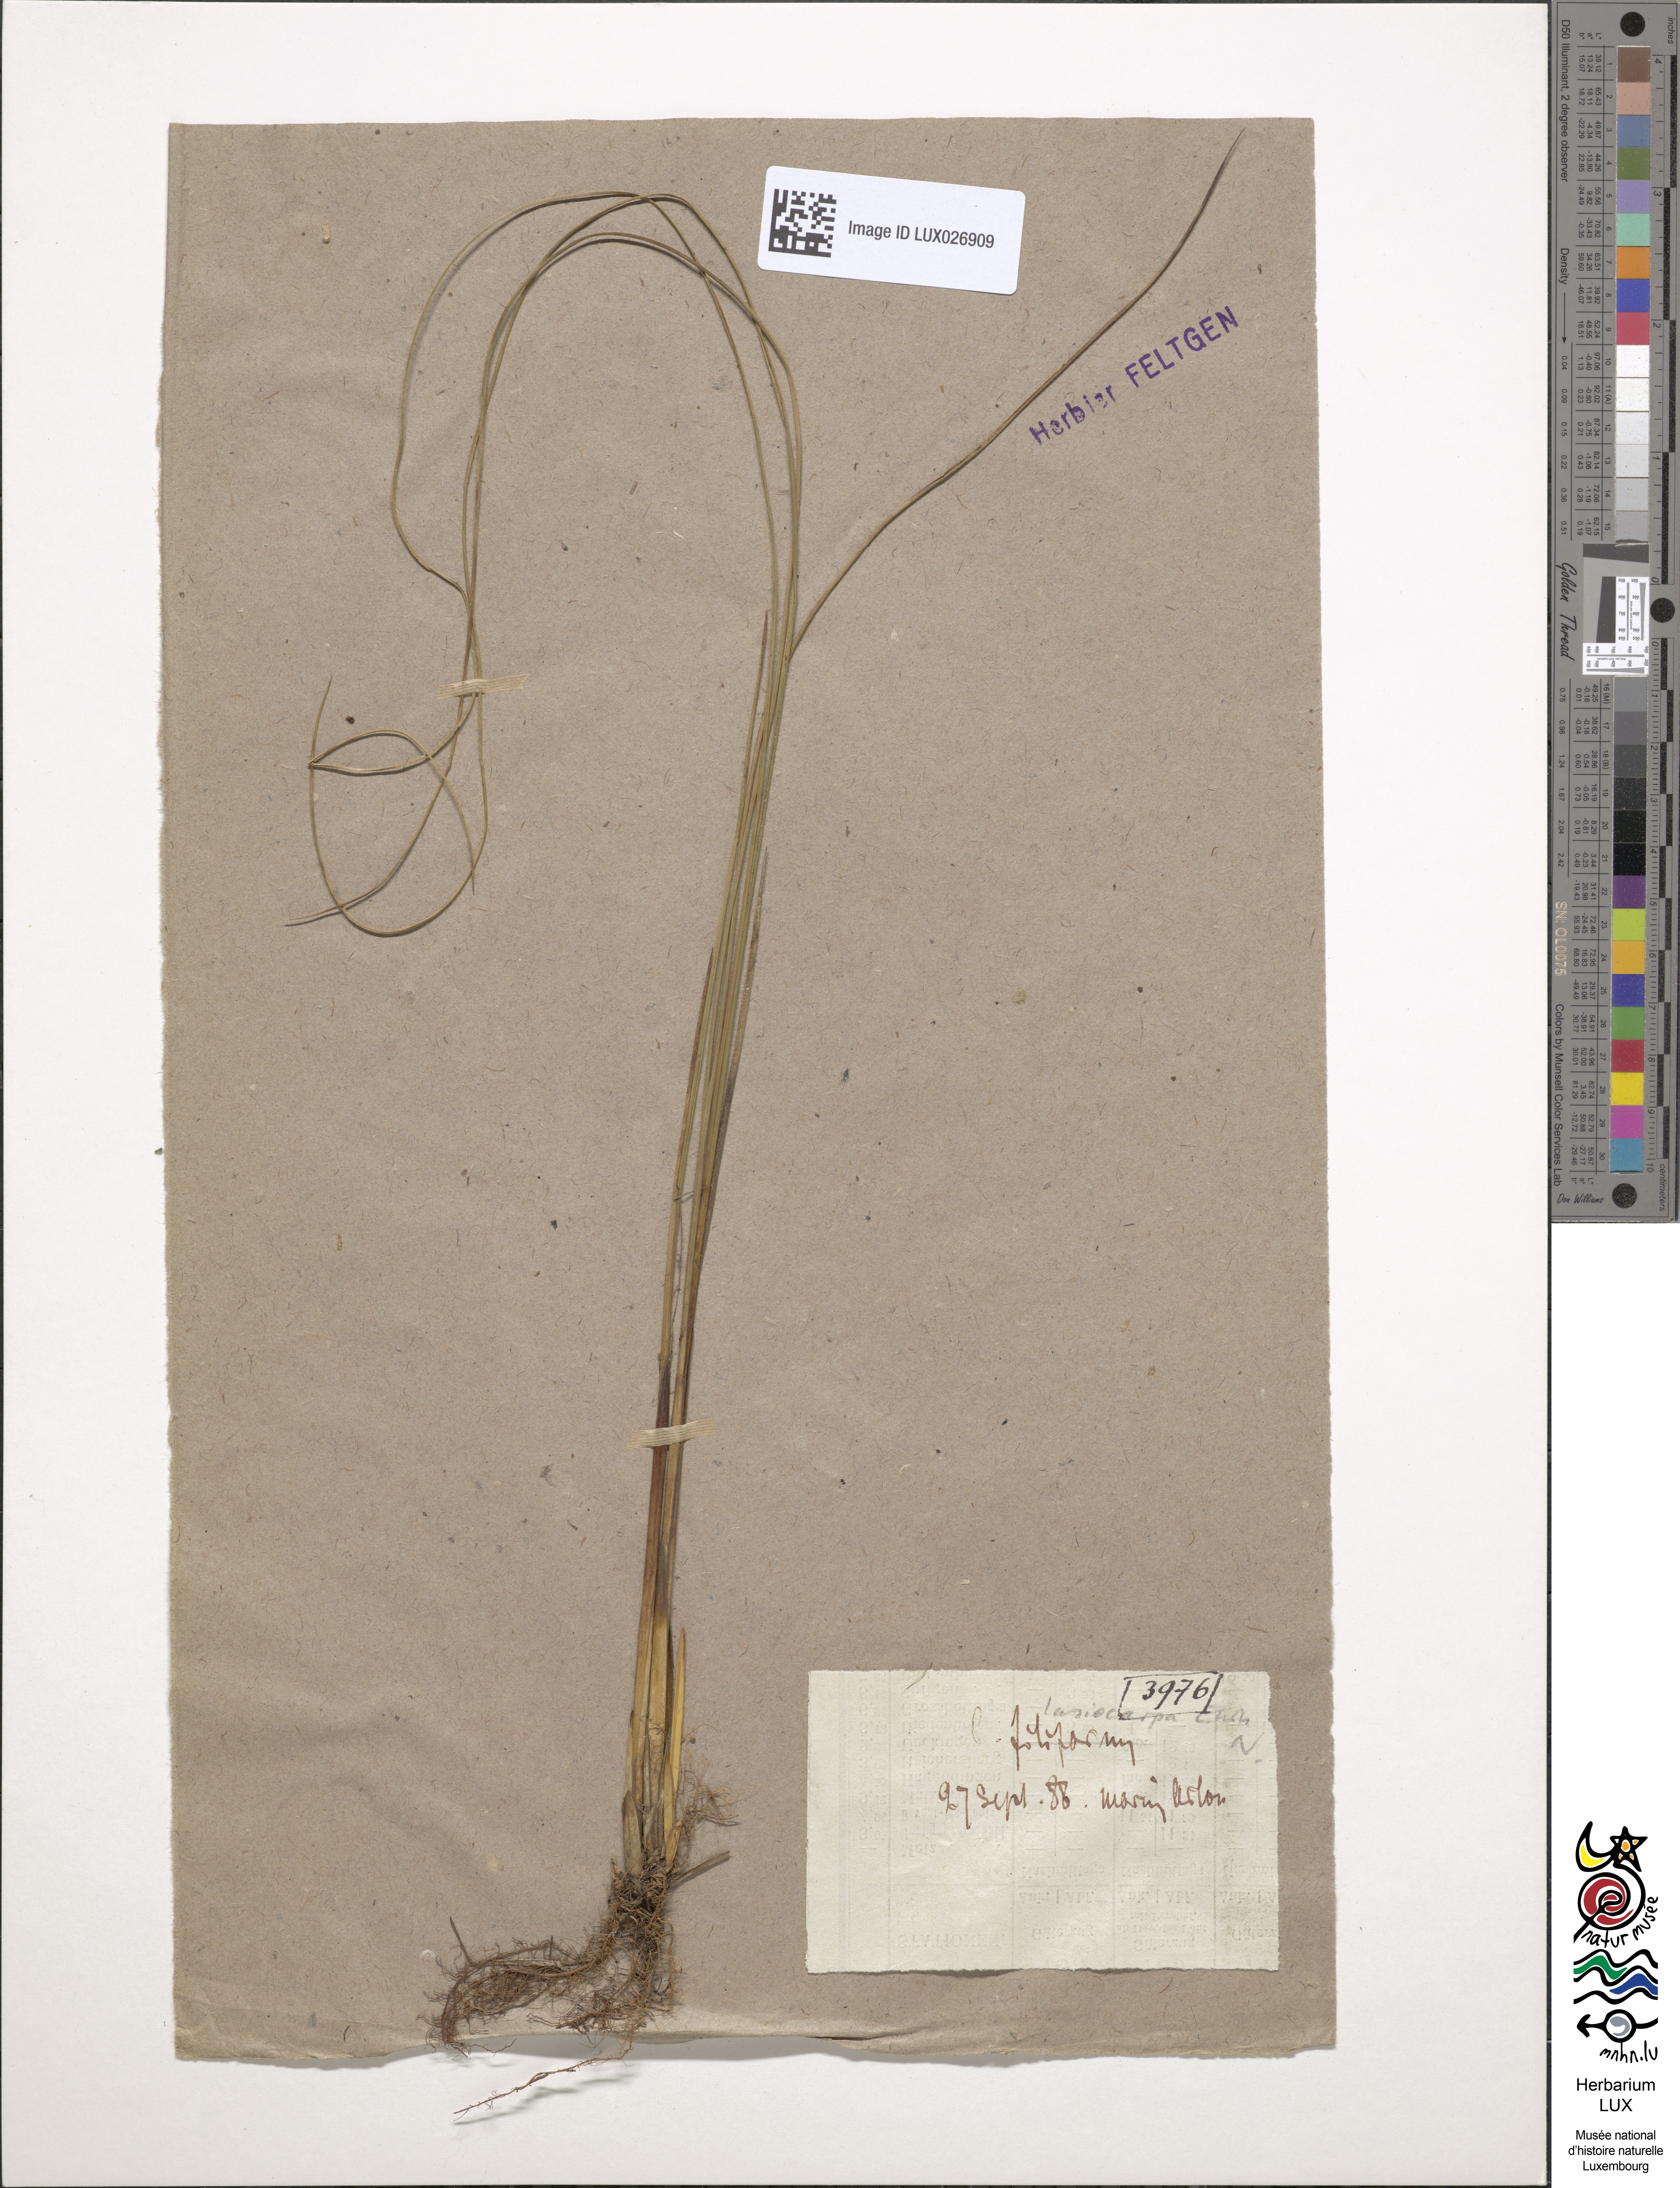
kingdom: Plantae
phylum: Tracheophyta
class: Liliopsida
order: Poales
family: Cyperaceae
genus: Carex
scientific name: Carex lasiocarpa
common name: Slender sedge
